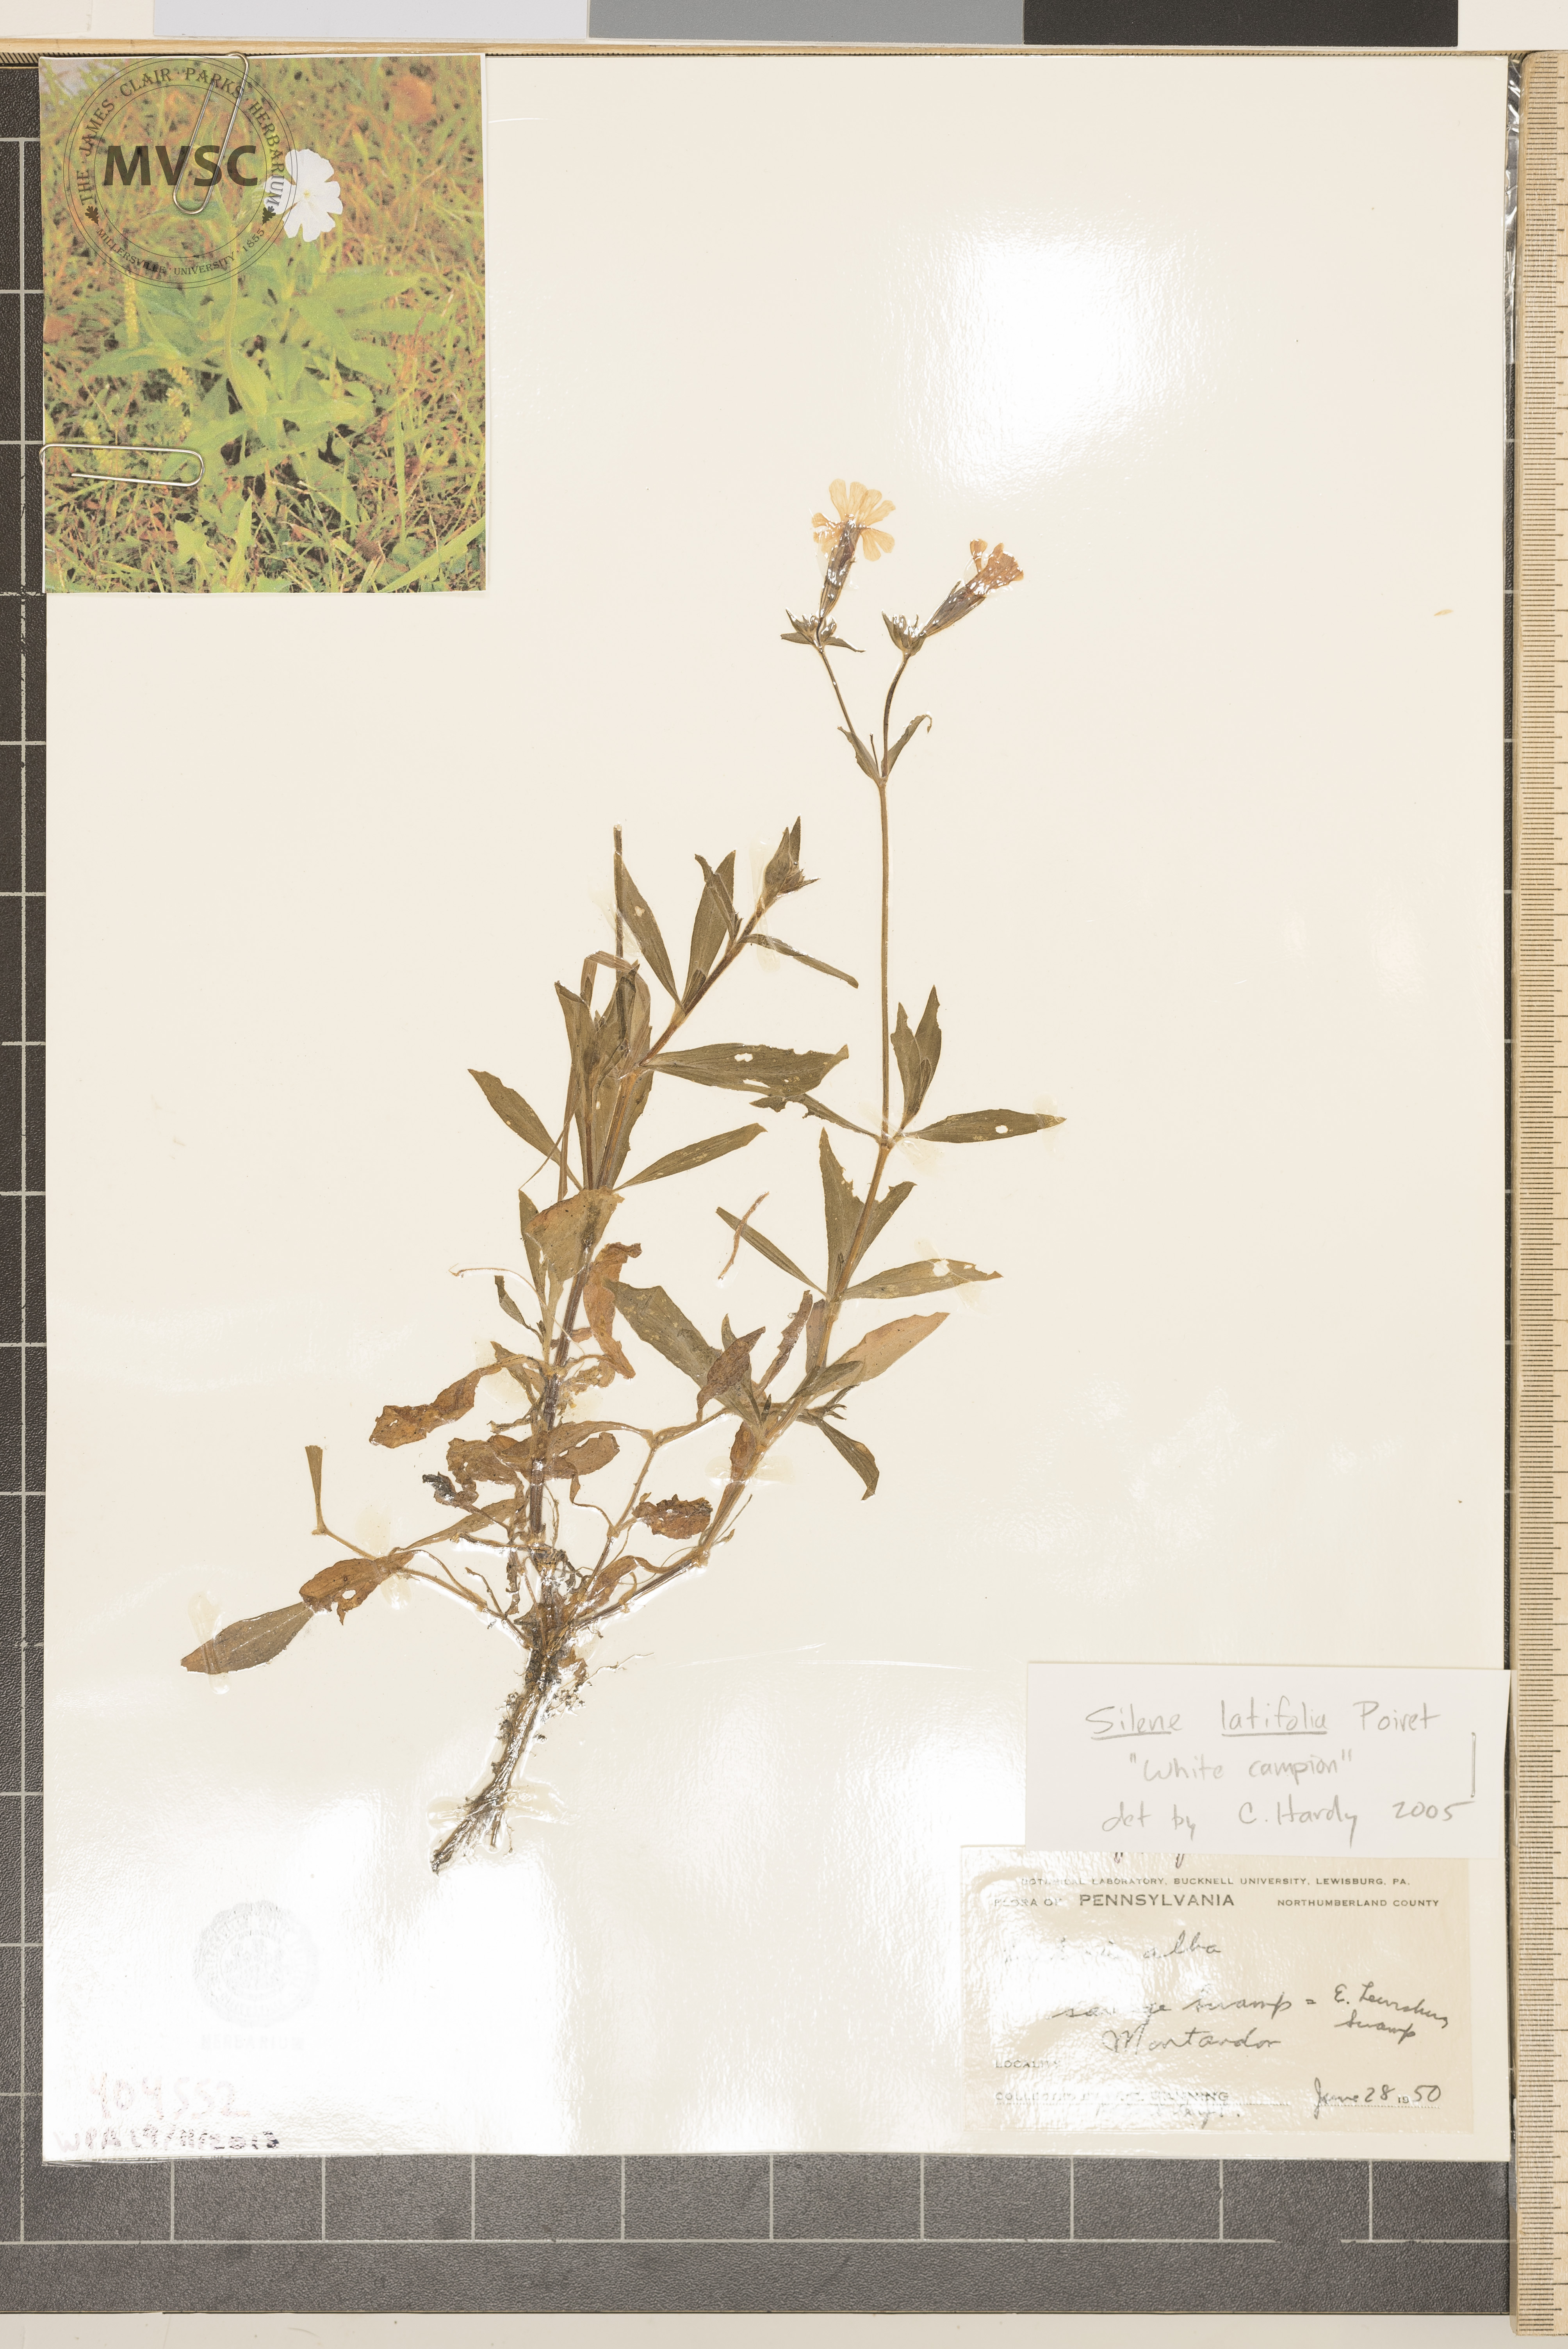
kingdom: Plantae
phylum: Tracheophyta
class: Magnoliopsida
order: Caryophyllales
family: Caryophyllaceae
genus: Silene
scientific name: Silene latifolia
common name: White campion
